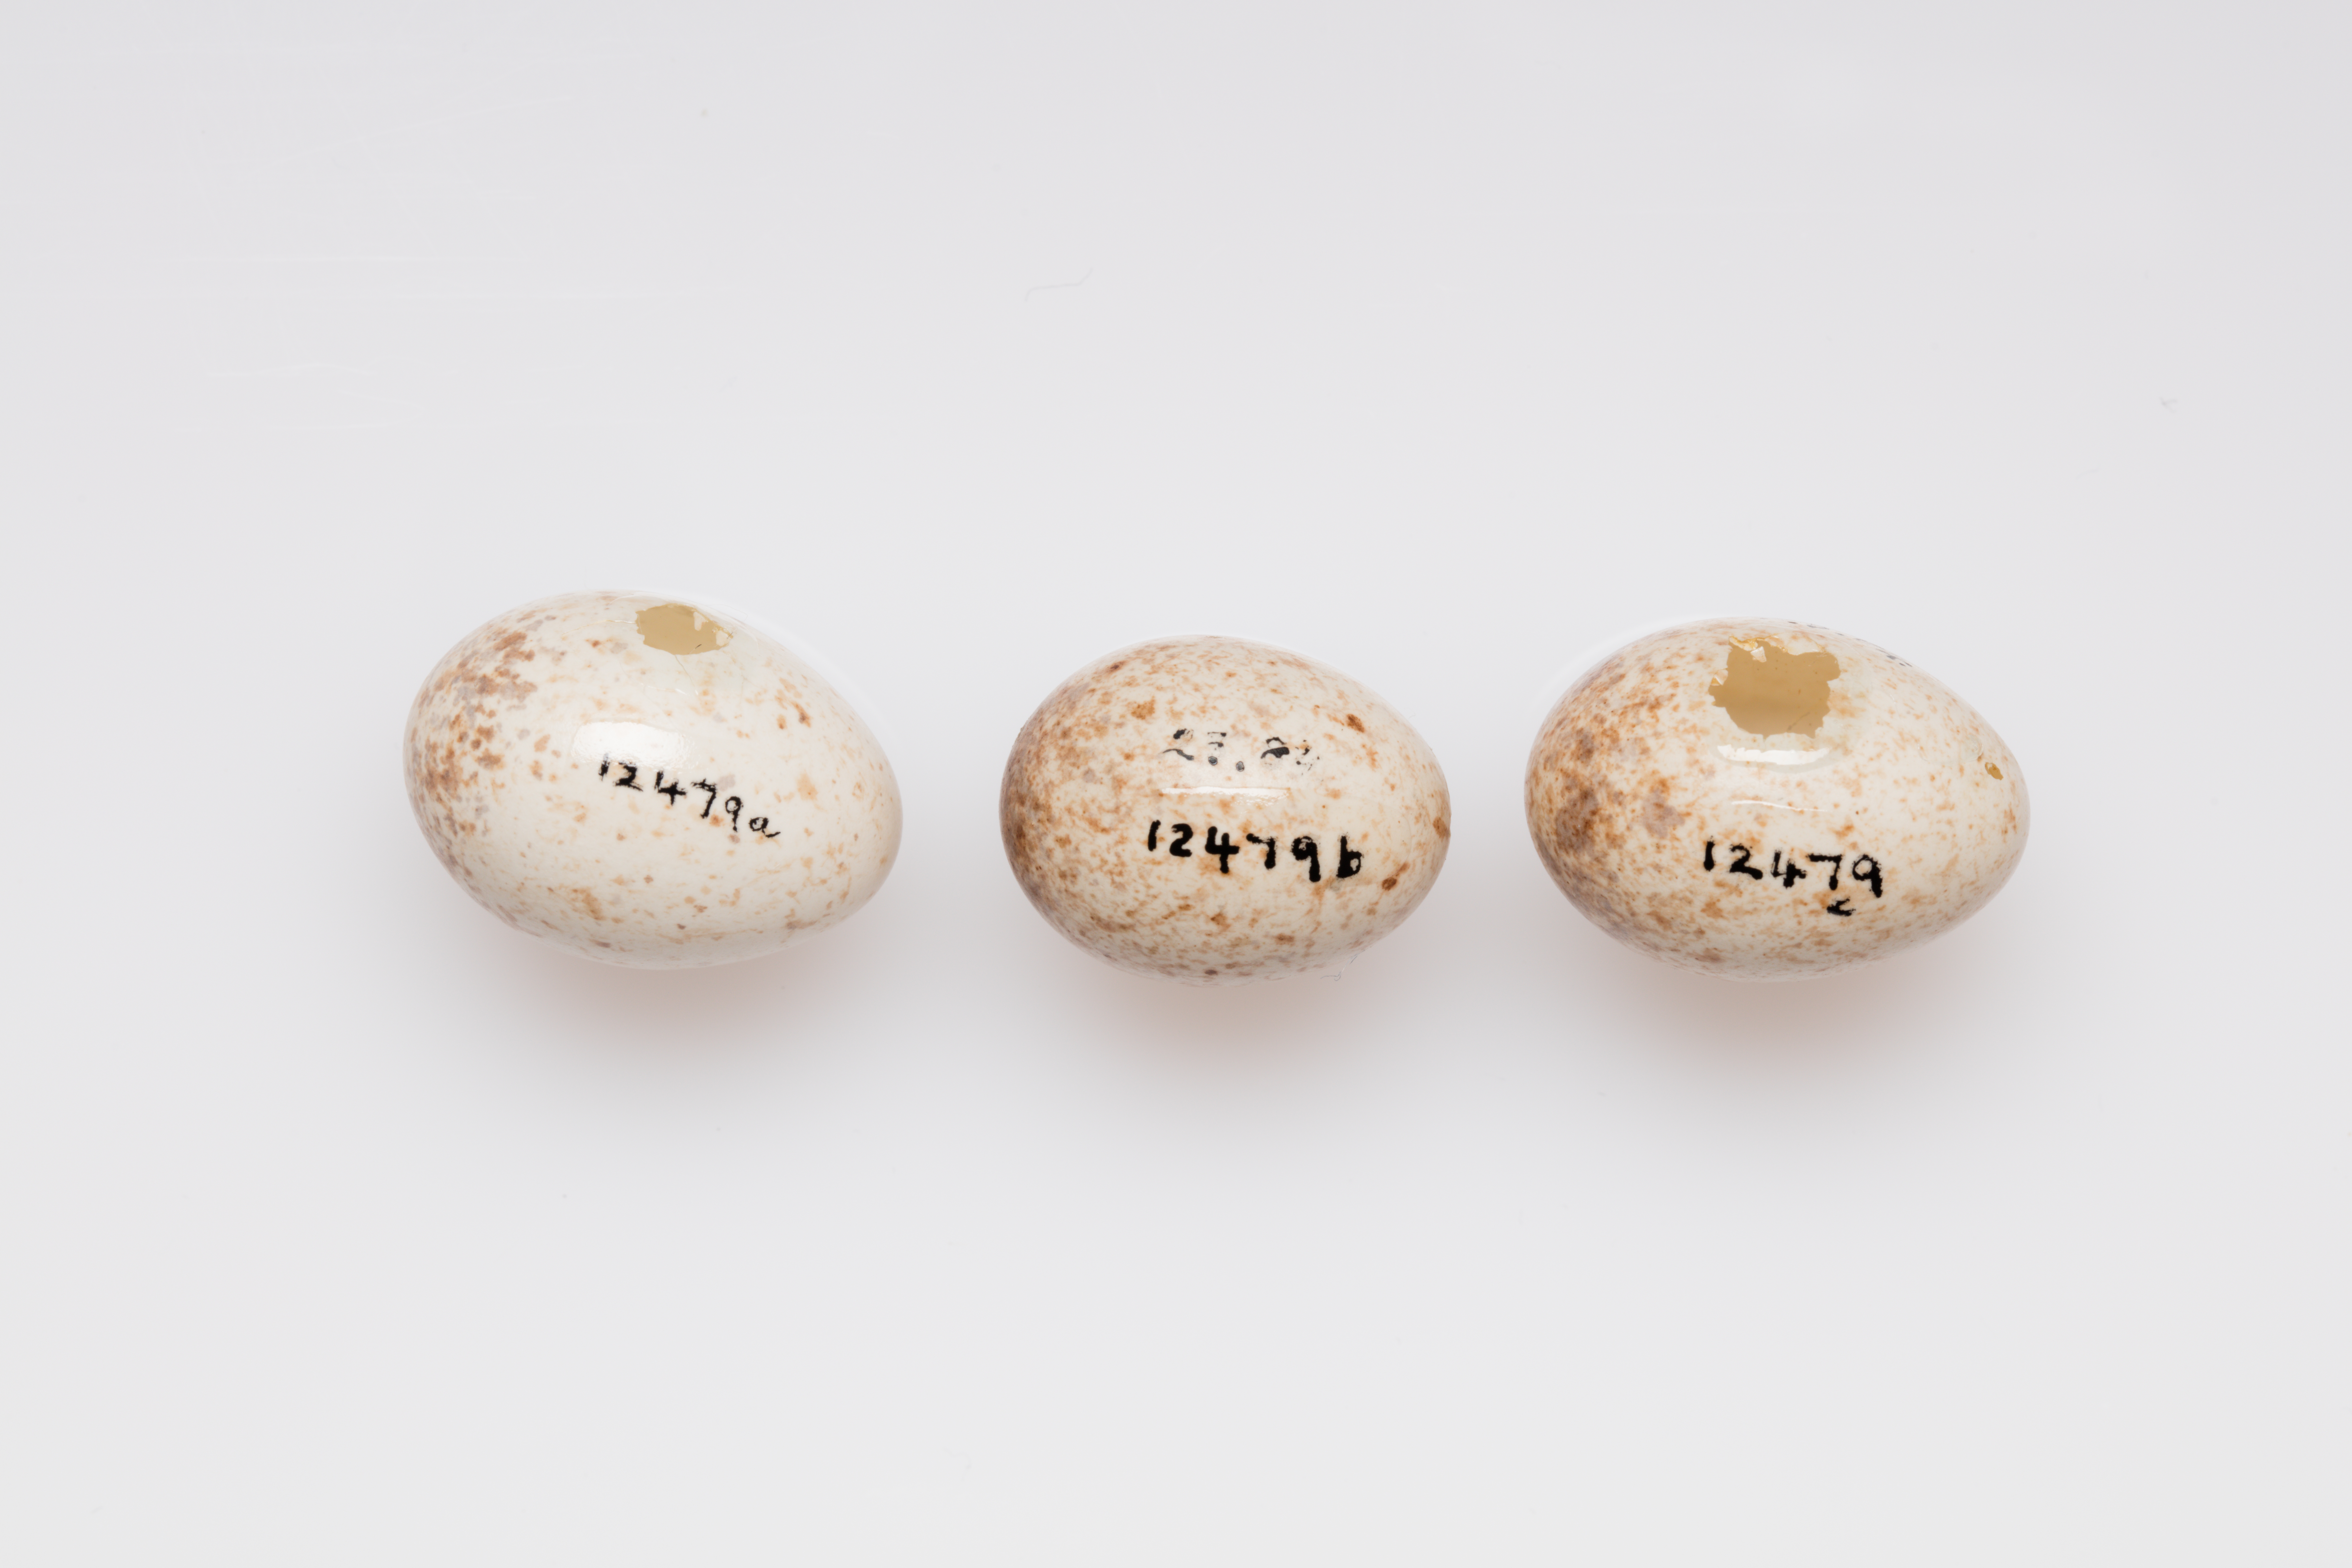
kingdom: Animalia
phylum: Chordata
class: Aves
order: Passeriformes
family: Muscicapidae
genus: Erithacus
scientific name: Erithacus rubecula
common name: European robin
